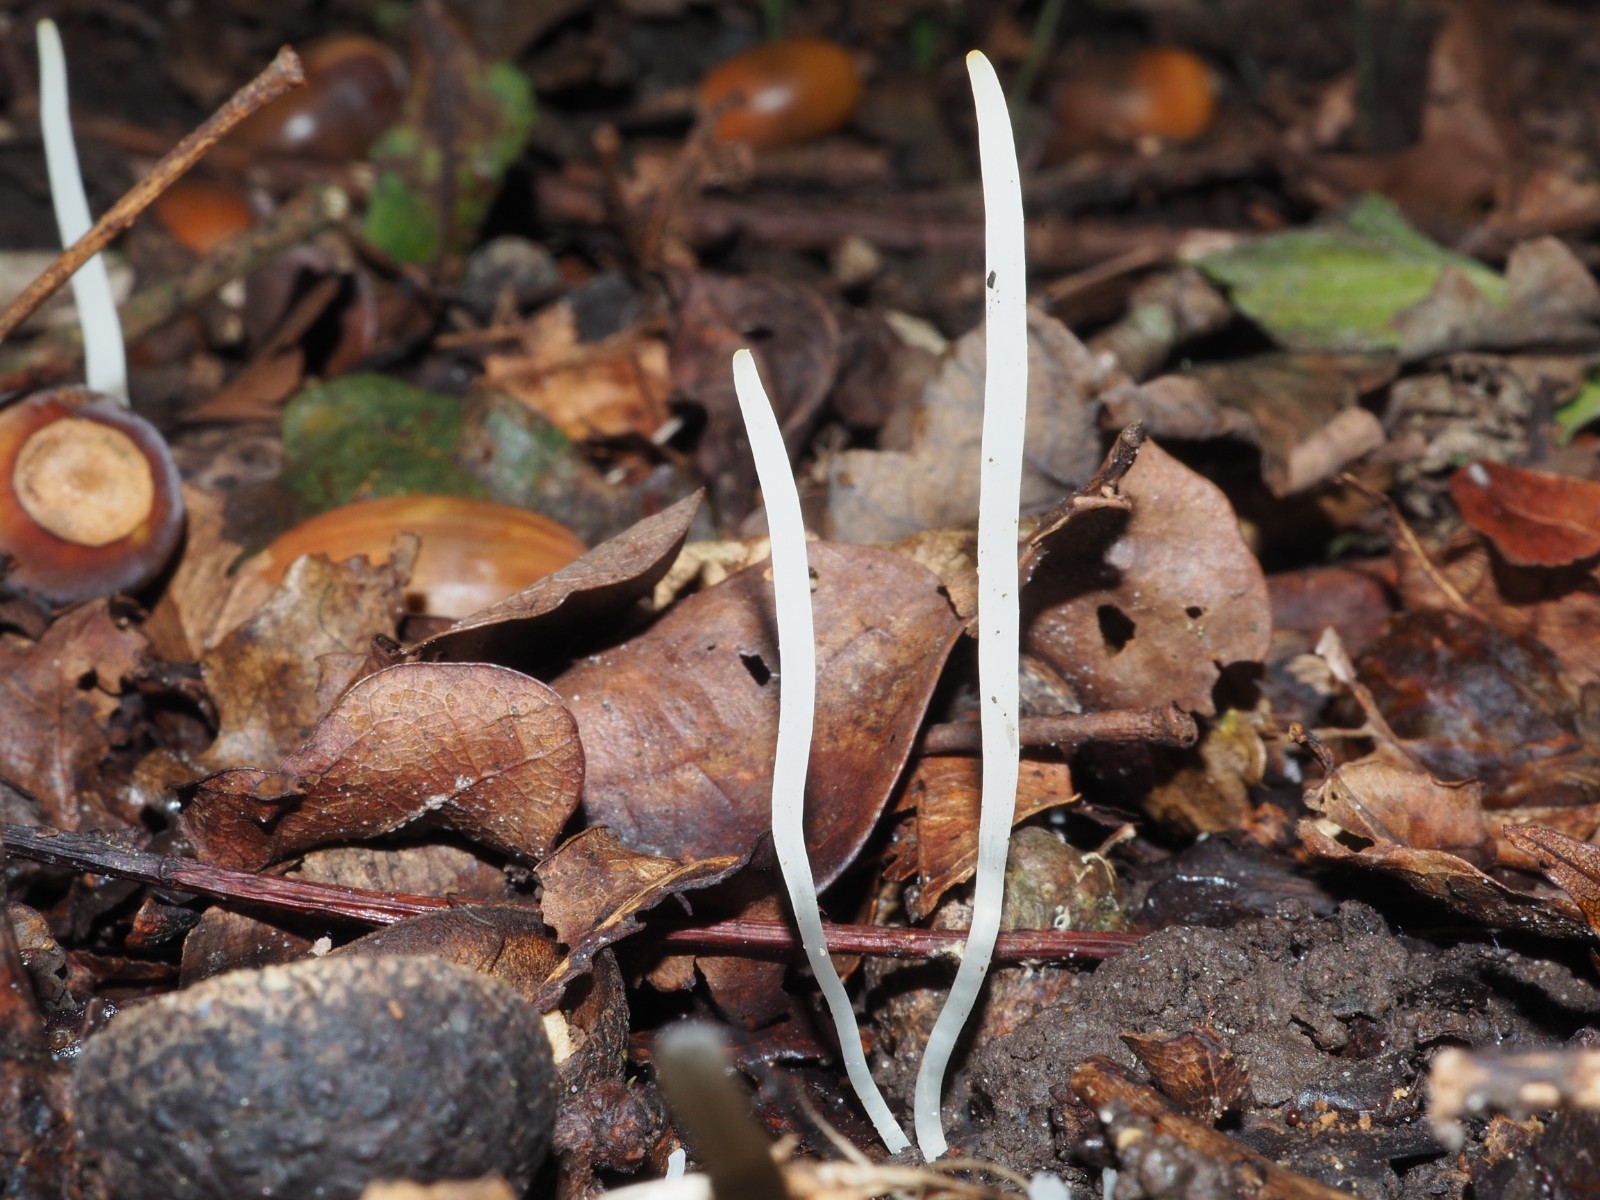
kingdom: Fungi
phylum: Basidiomycota
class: Agaricomycetes
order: Agaricales
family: Clavariaceae
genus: Clavaria
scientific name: Clavaria falcata
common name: hvid køllesvamp
